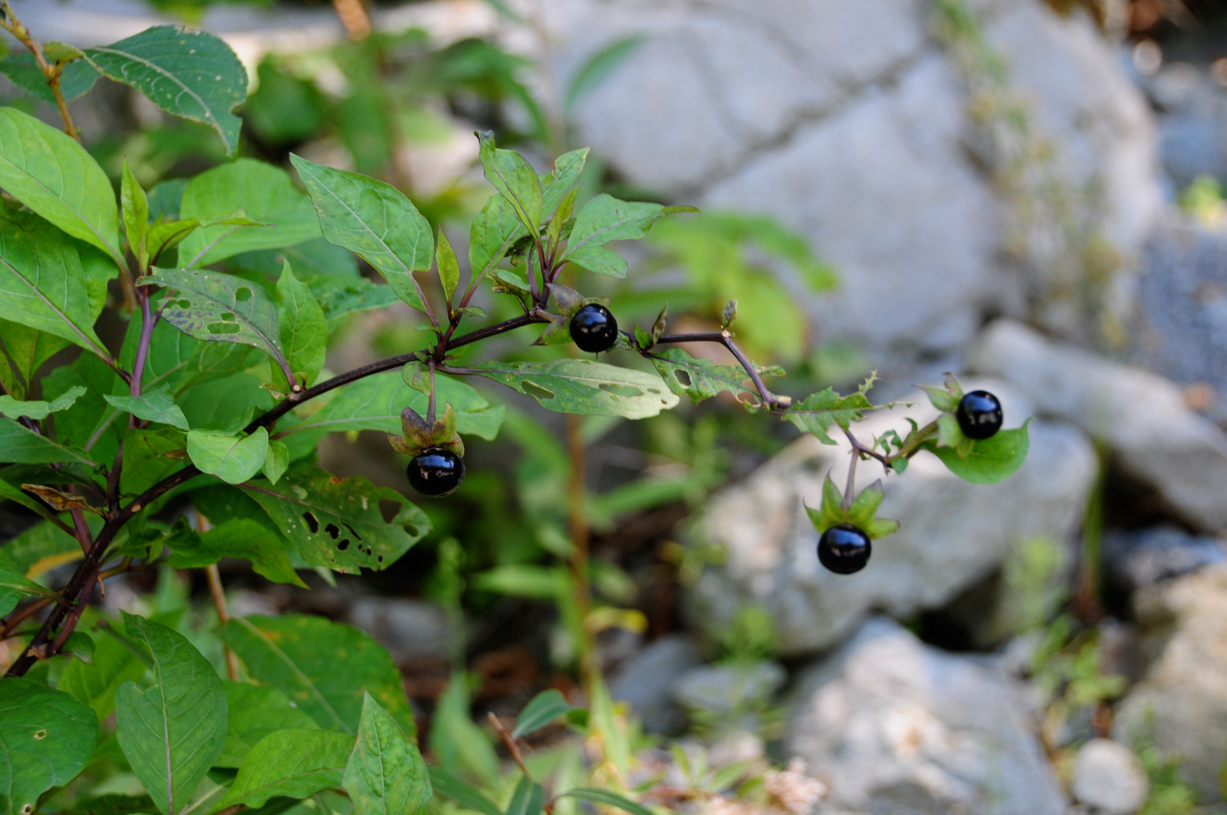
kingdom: Plantae
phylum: Tracheophyta
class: Magnoliopsida
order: Solanales
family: Solanaceae
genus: Atropa
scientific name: Atropa belladonna
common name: Deadly nightshade
